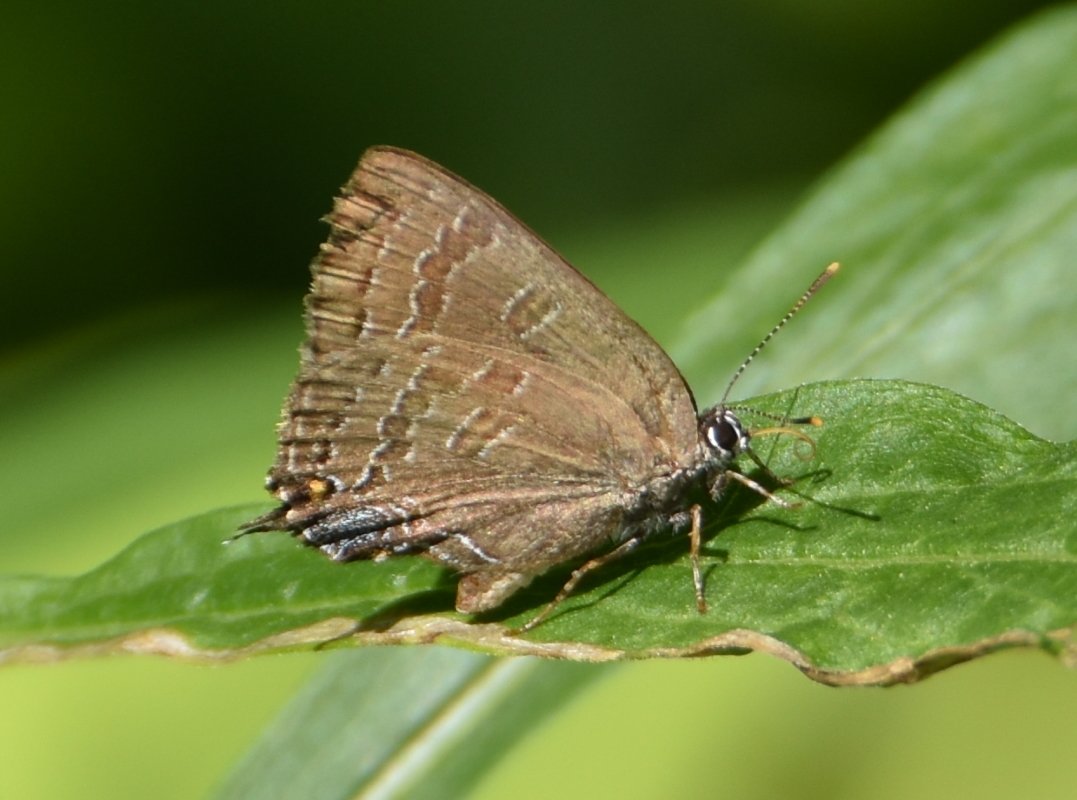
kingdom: Animalia
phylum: Arthropoda
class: Insecta
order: Lepidoptera
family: Lycaenidae
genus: Strymon
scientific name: Strymon caryaevorus
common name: Hickory Hairstreak
